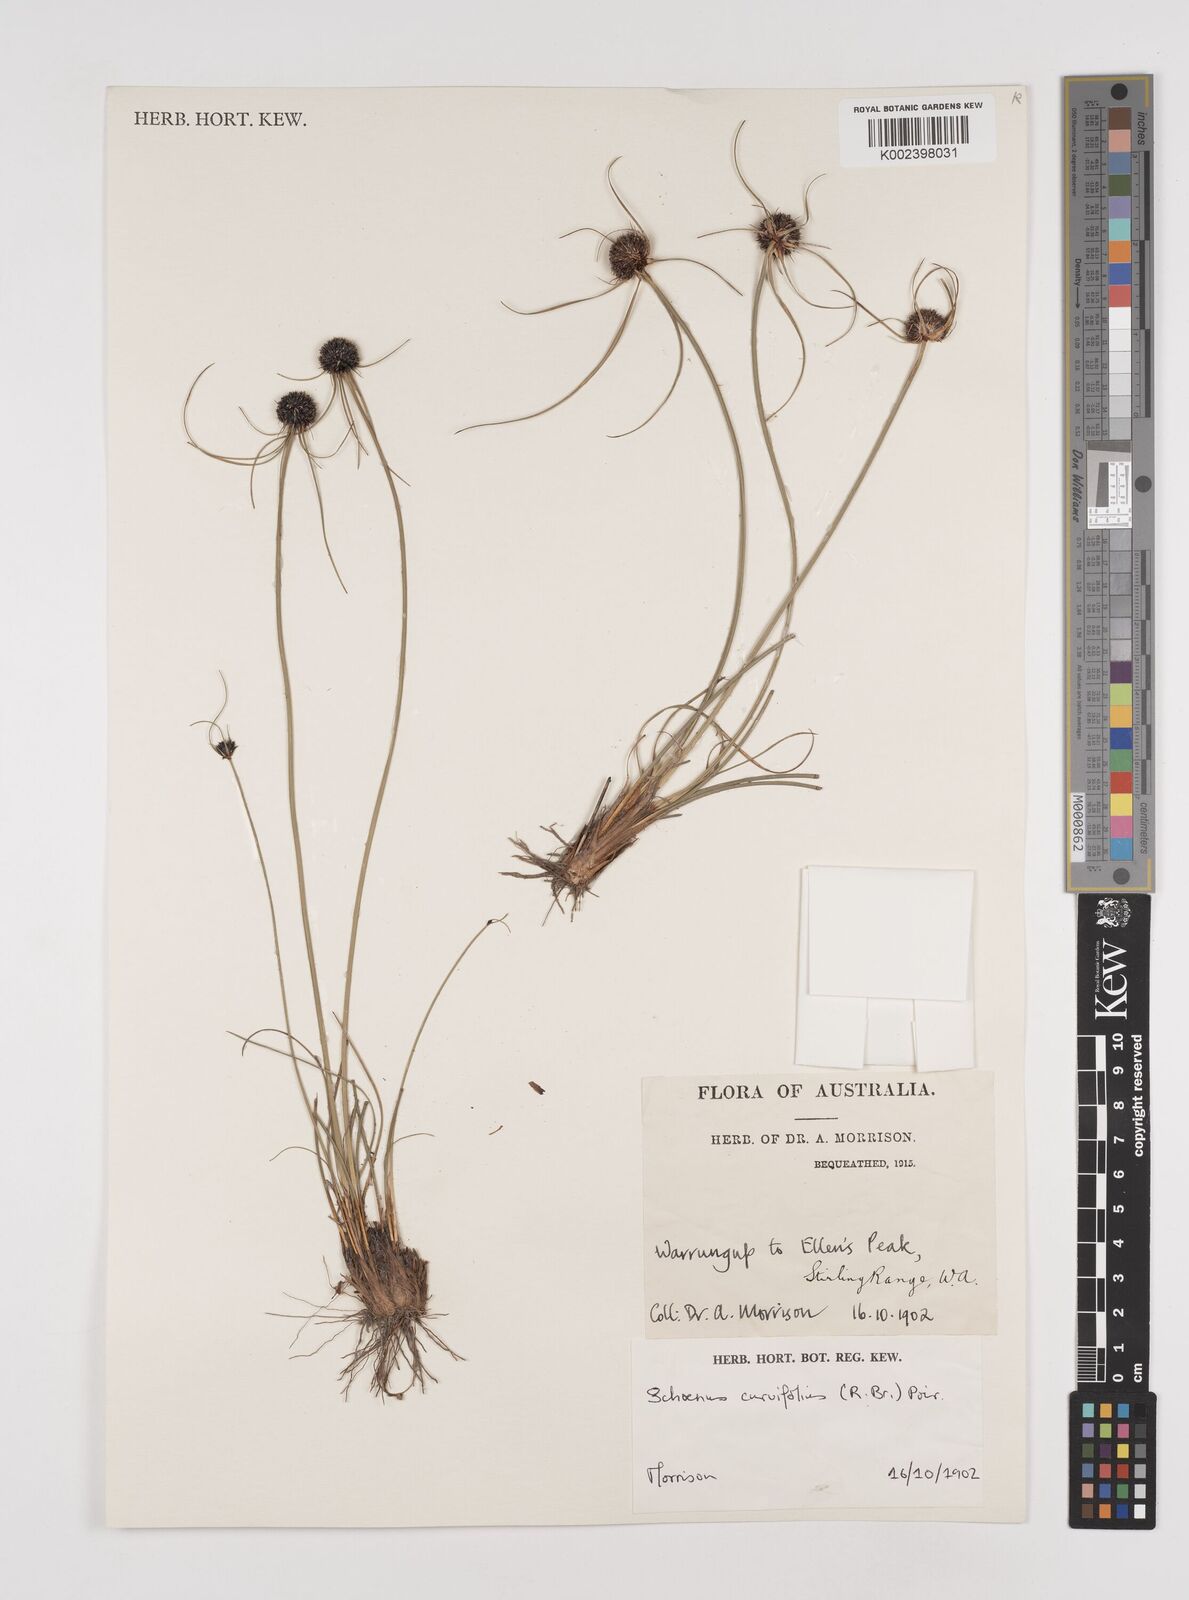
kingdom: Plantae
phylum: Tracheophyta
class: Liliopsida
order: Poales
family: Cyperaceae
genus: Schoenus
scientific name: Schoenus
